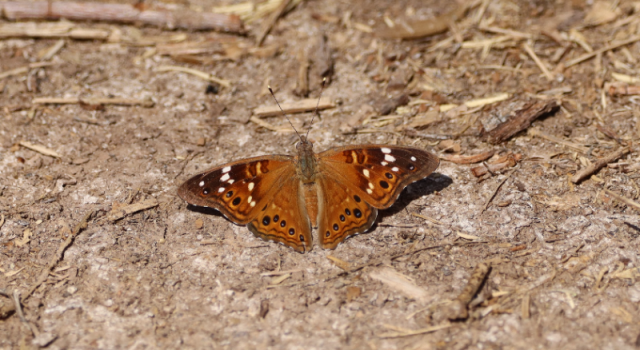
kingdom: Animalia
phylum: Arthropoda
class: Insecta
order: Lepidoptera
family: Nymphalidae
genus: Asterocampa
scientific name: Asterocampa leilia
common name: Empress Leilia
